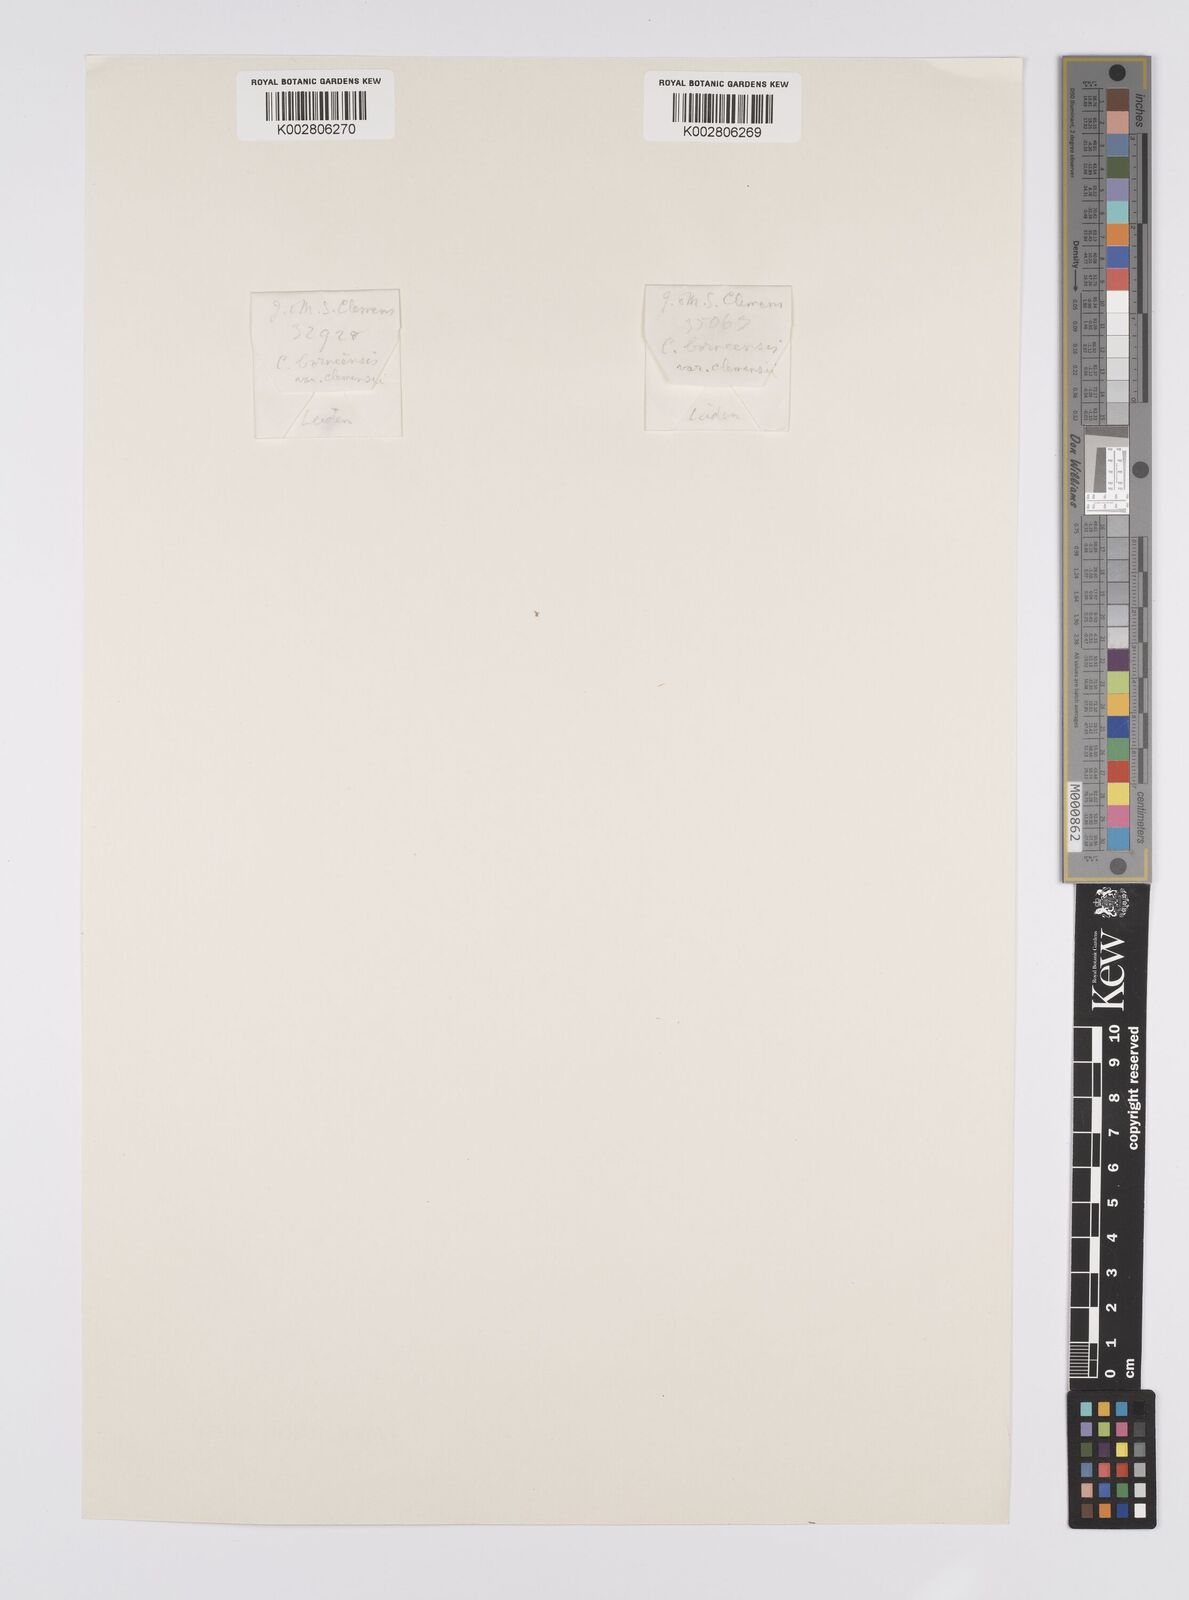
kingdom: Plantae
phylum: Tracheophyta
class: Liliopsida
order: Poales
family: Cyperaceae
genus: Carex
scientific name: Carex perakensis
